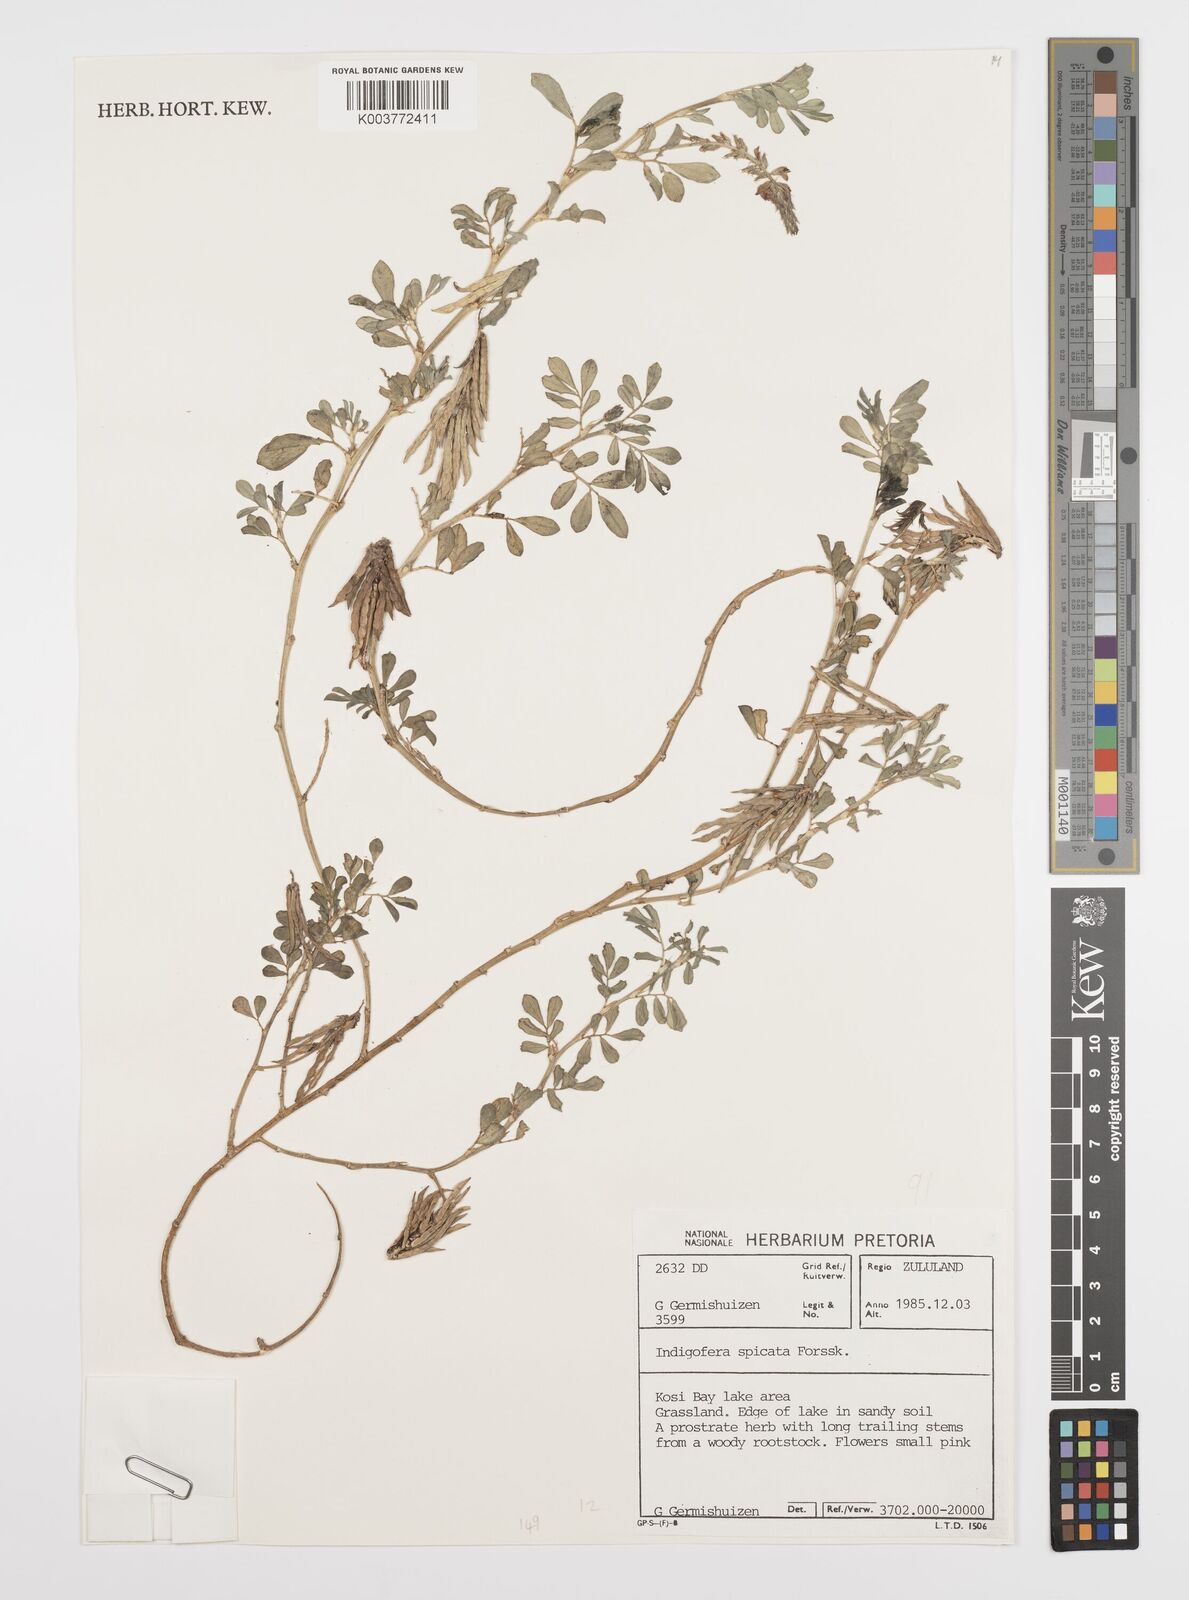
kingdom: Plantae
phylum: Tracheophyta
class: Magnoliopsida
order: Fabales
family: Fabaceae
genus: Indigofera
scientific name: Indigofera spicata
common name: Creeping indigo
